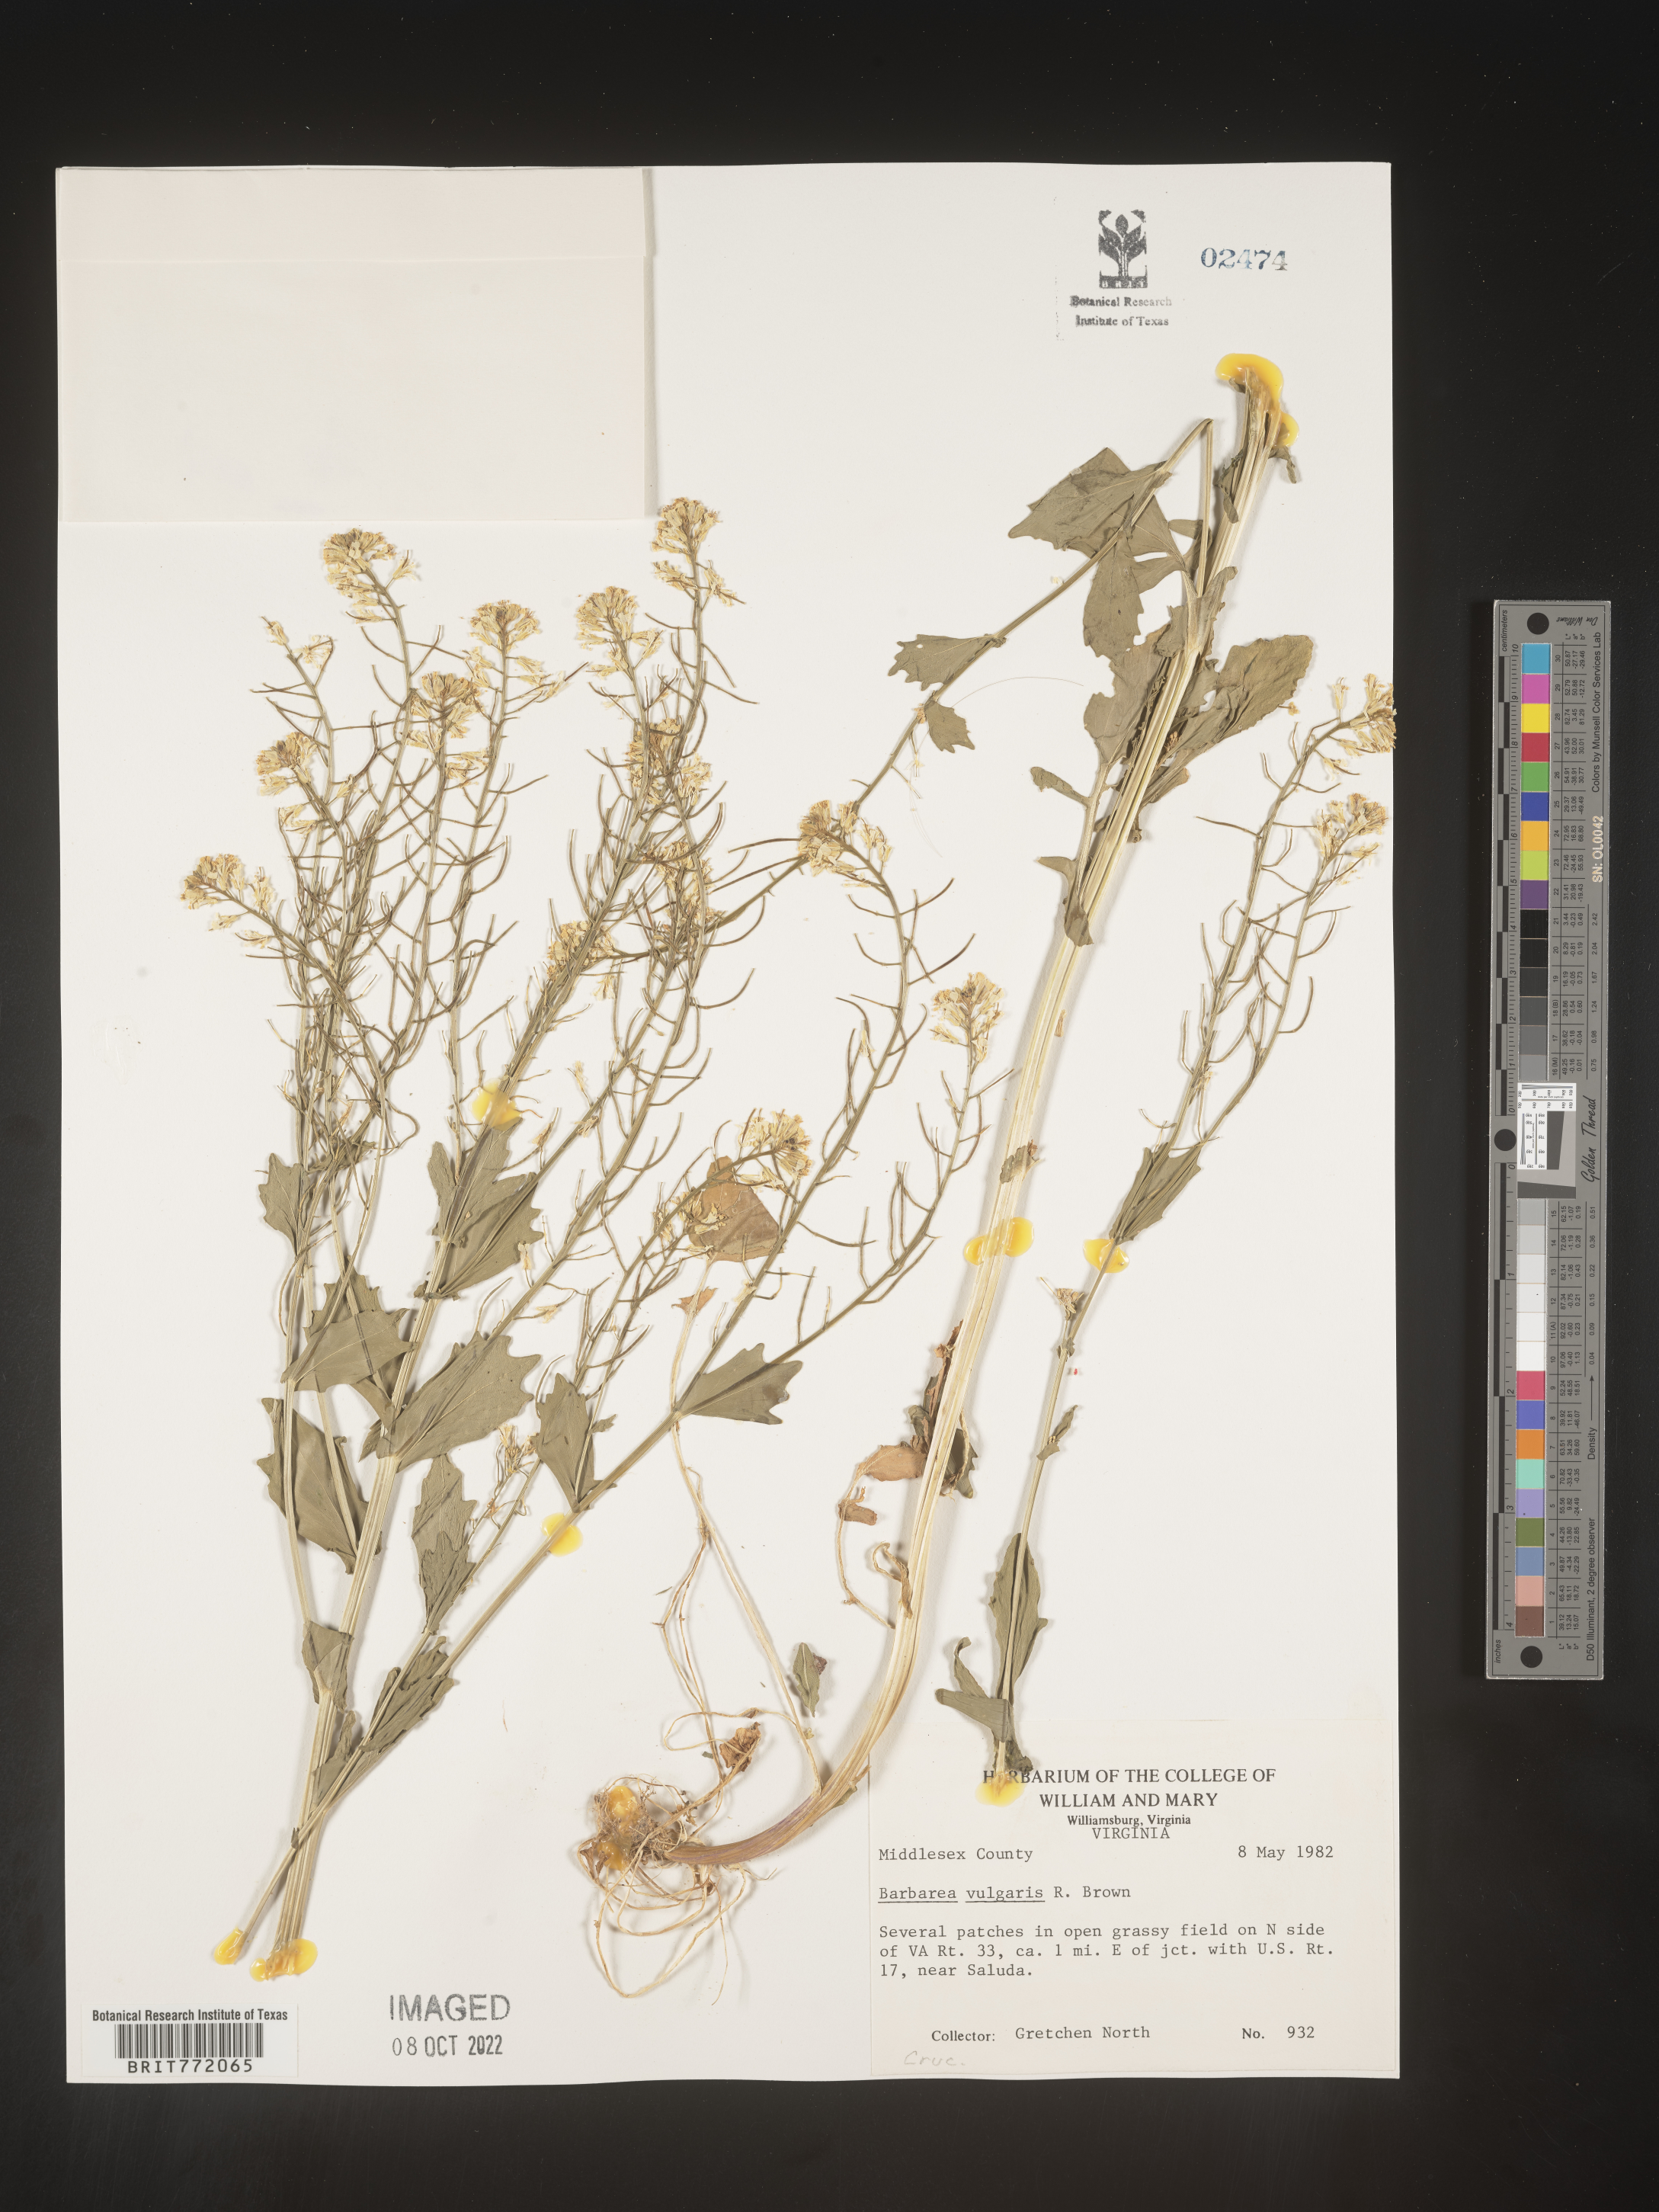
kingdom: Plantae
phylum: Tracheophyta
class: Magnoliopsida
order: Brassicales
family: Brassicaceae
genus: Barbarea
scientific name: Barbarea vulgaris
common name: Cressy-greens
